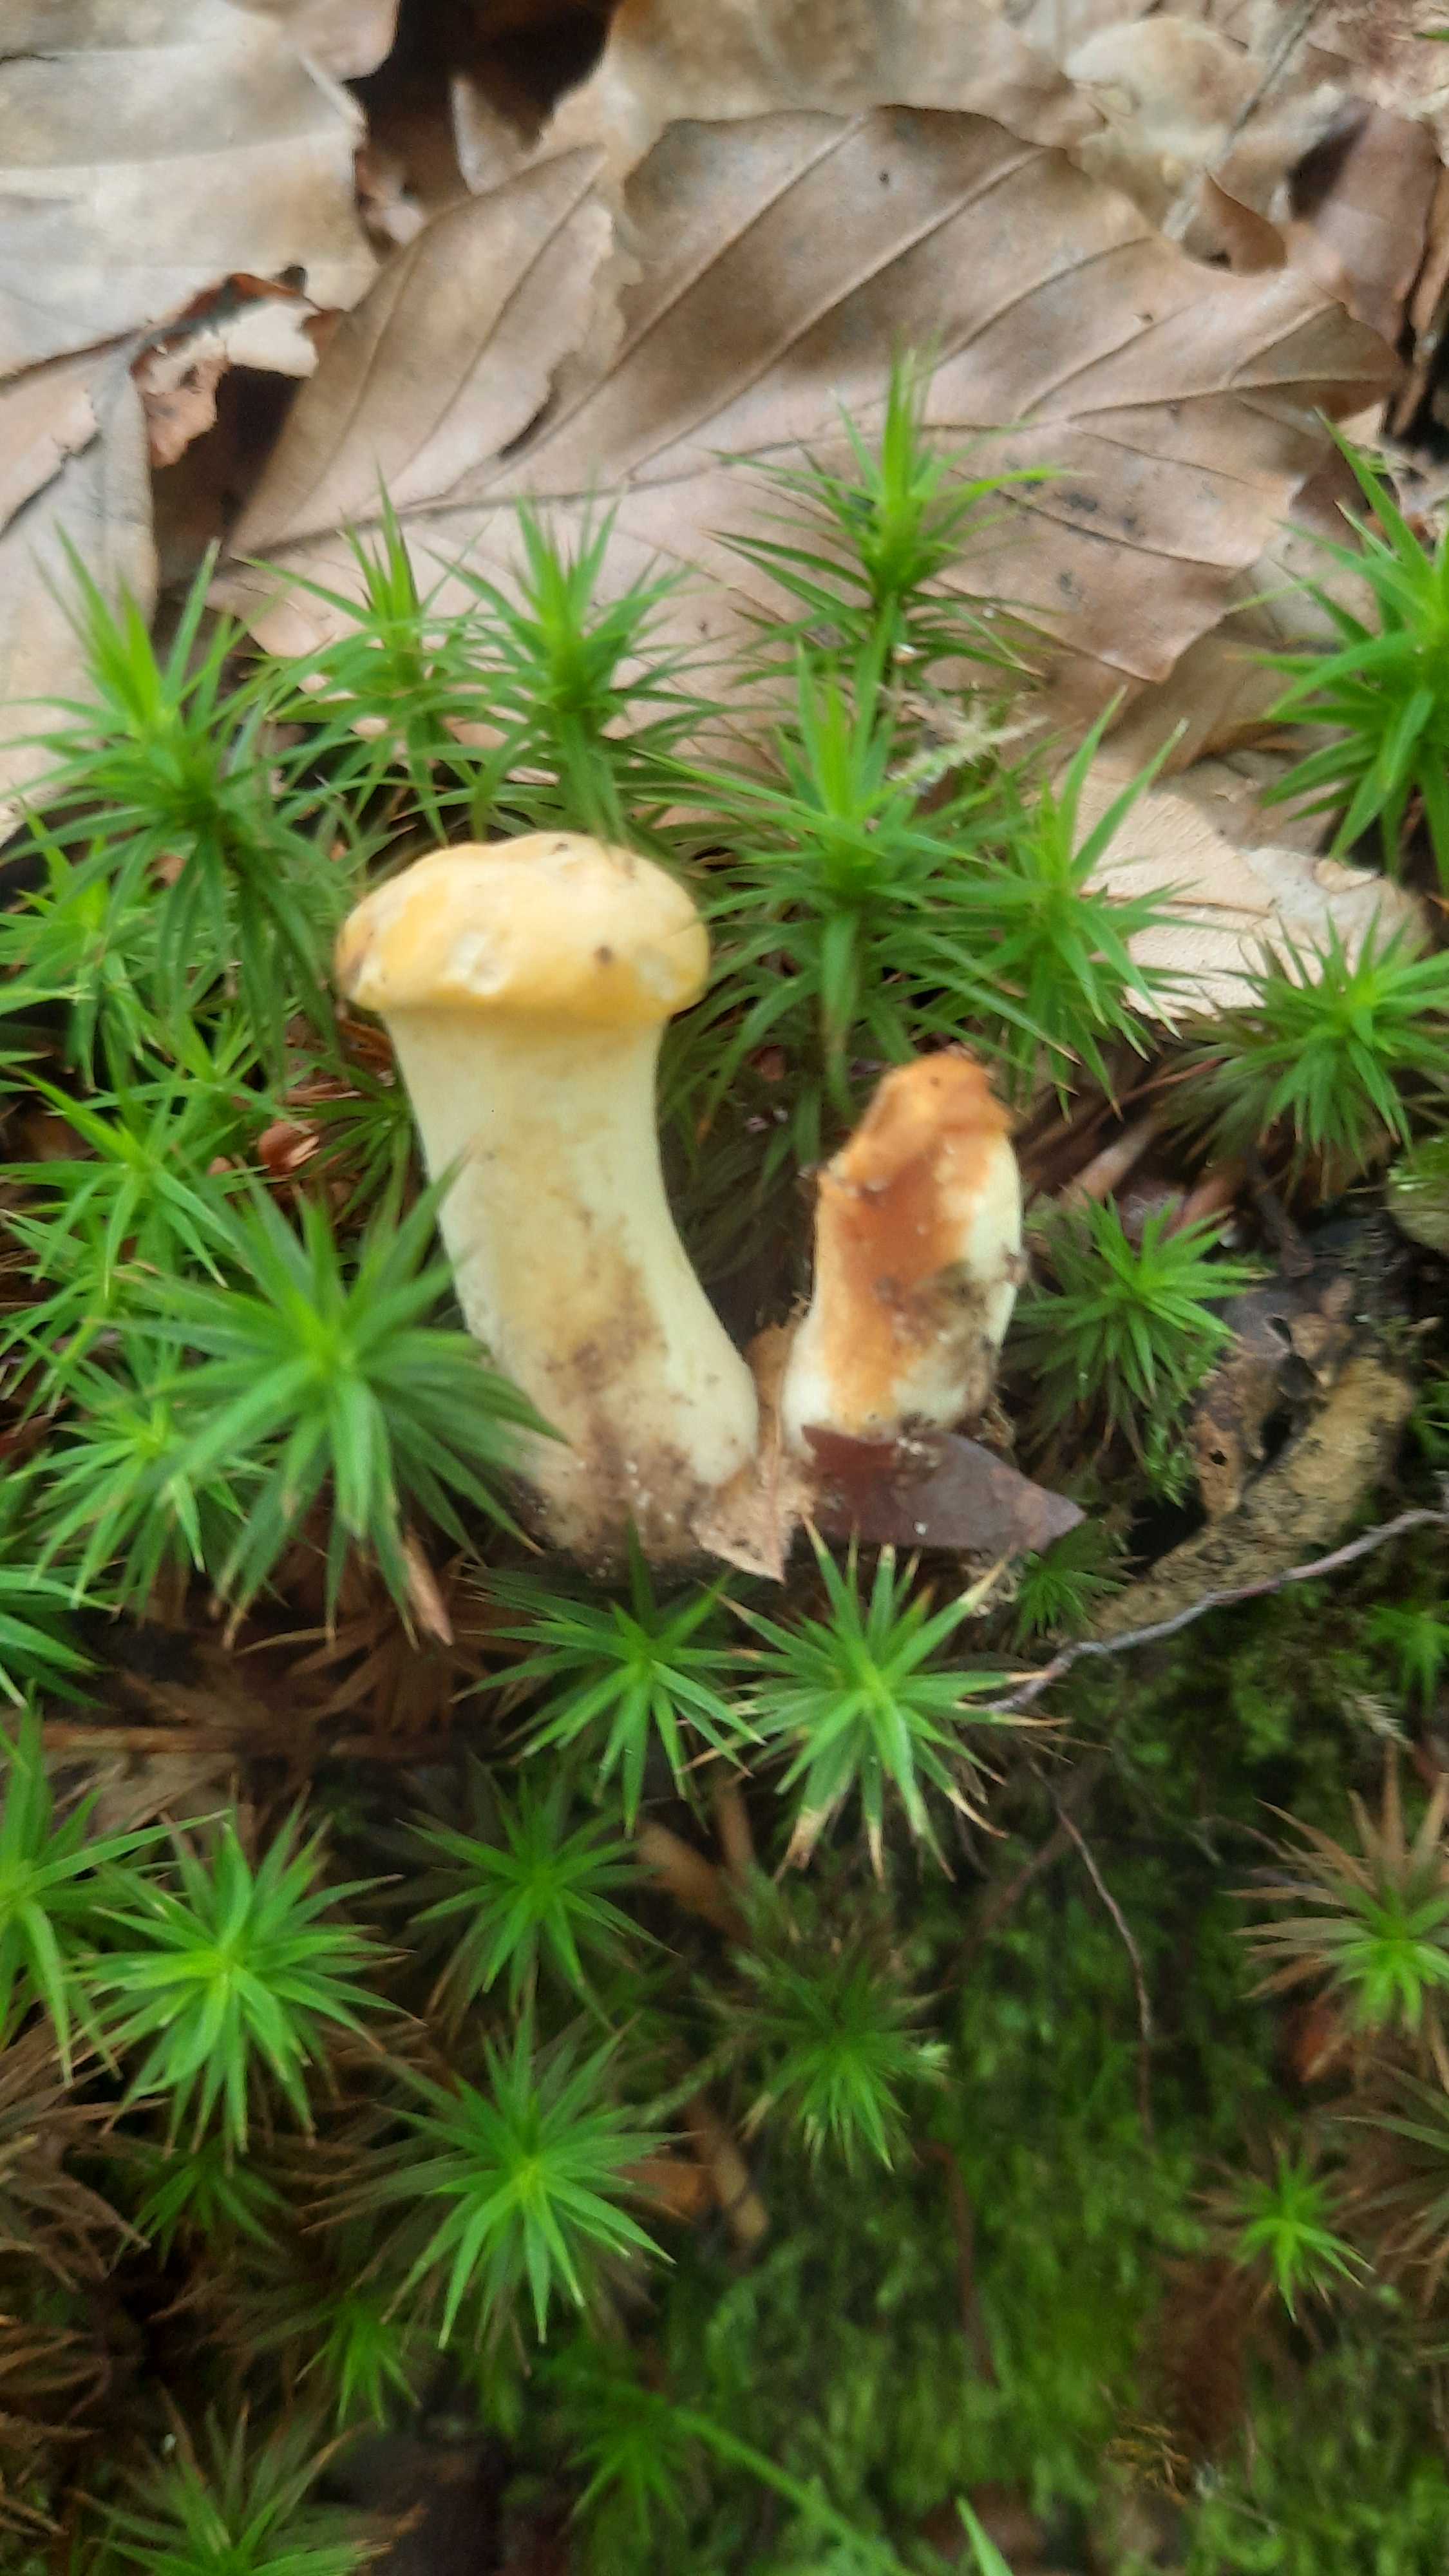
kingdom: Fungi
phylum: Basidiomycota
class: Agaricomycetes
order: Cantharellales
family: Hydnaceae
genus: Cantharellus
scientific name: Cantharellus cibarius
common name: almindelig kantarel
